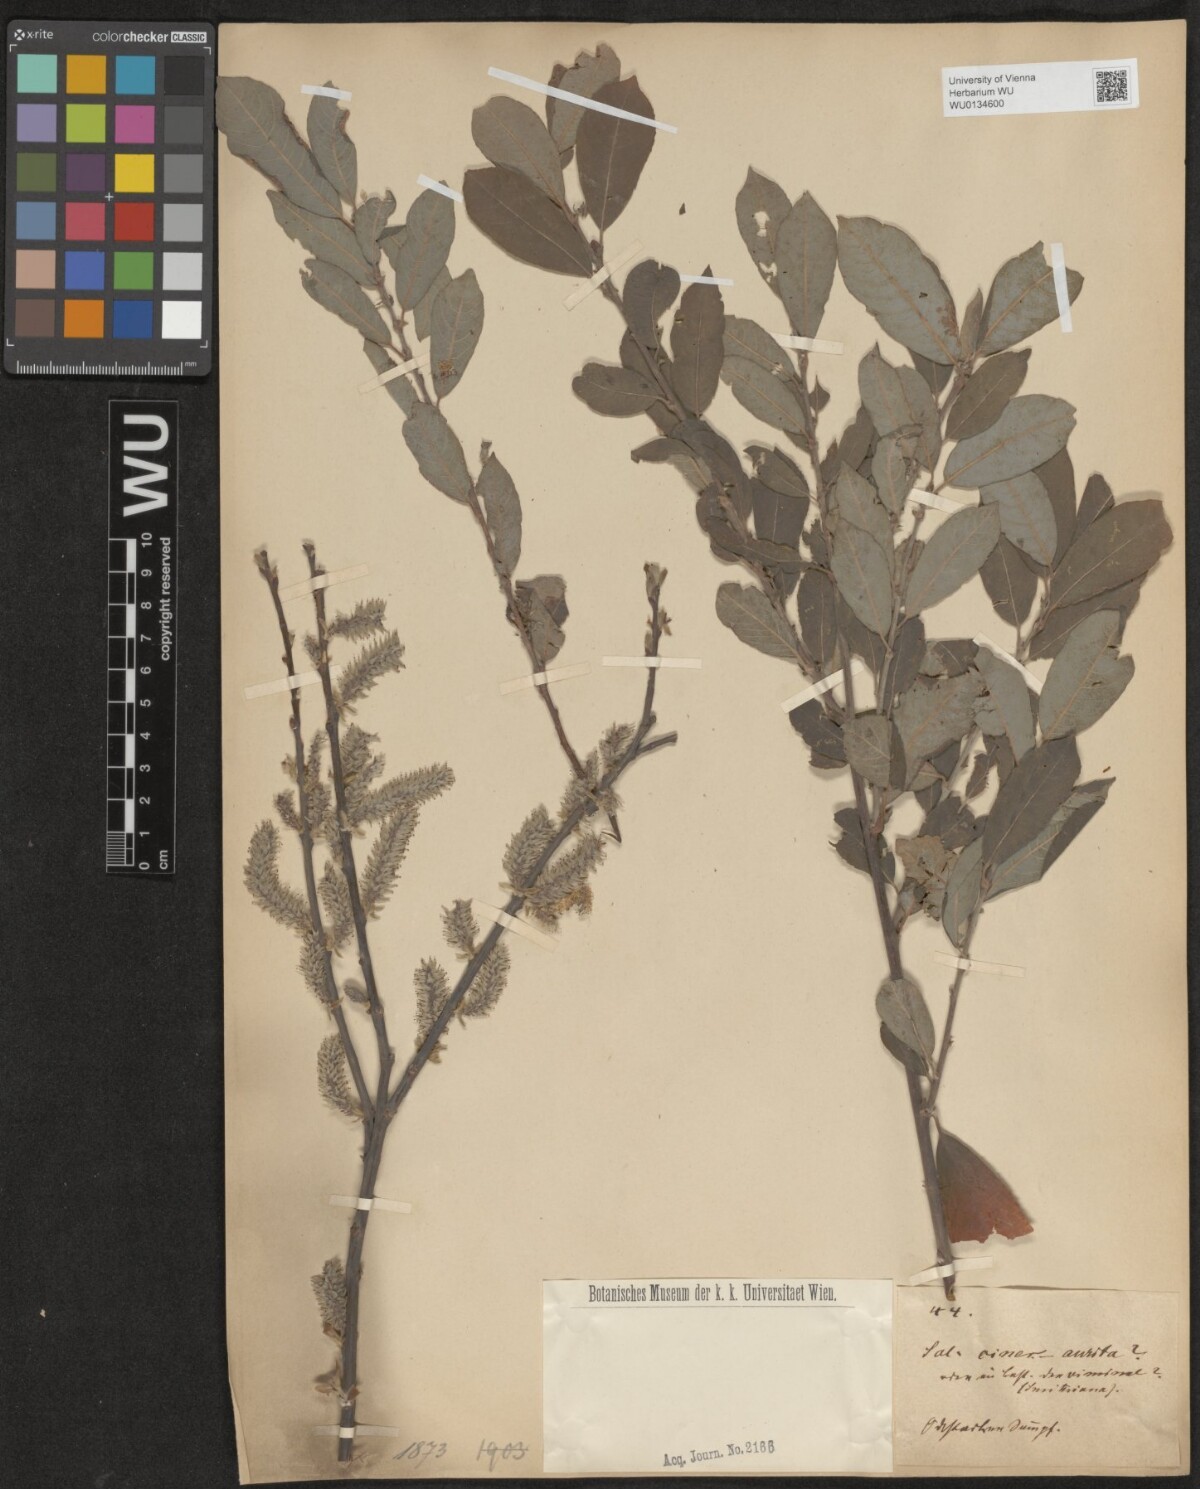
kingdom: Plantae
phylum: Tracheophyta
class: Magnoliopsida
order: Malpighiales
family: Salicaceae
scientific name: Salicaceae
